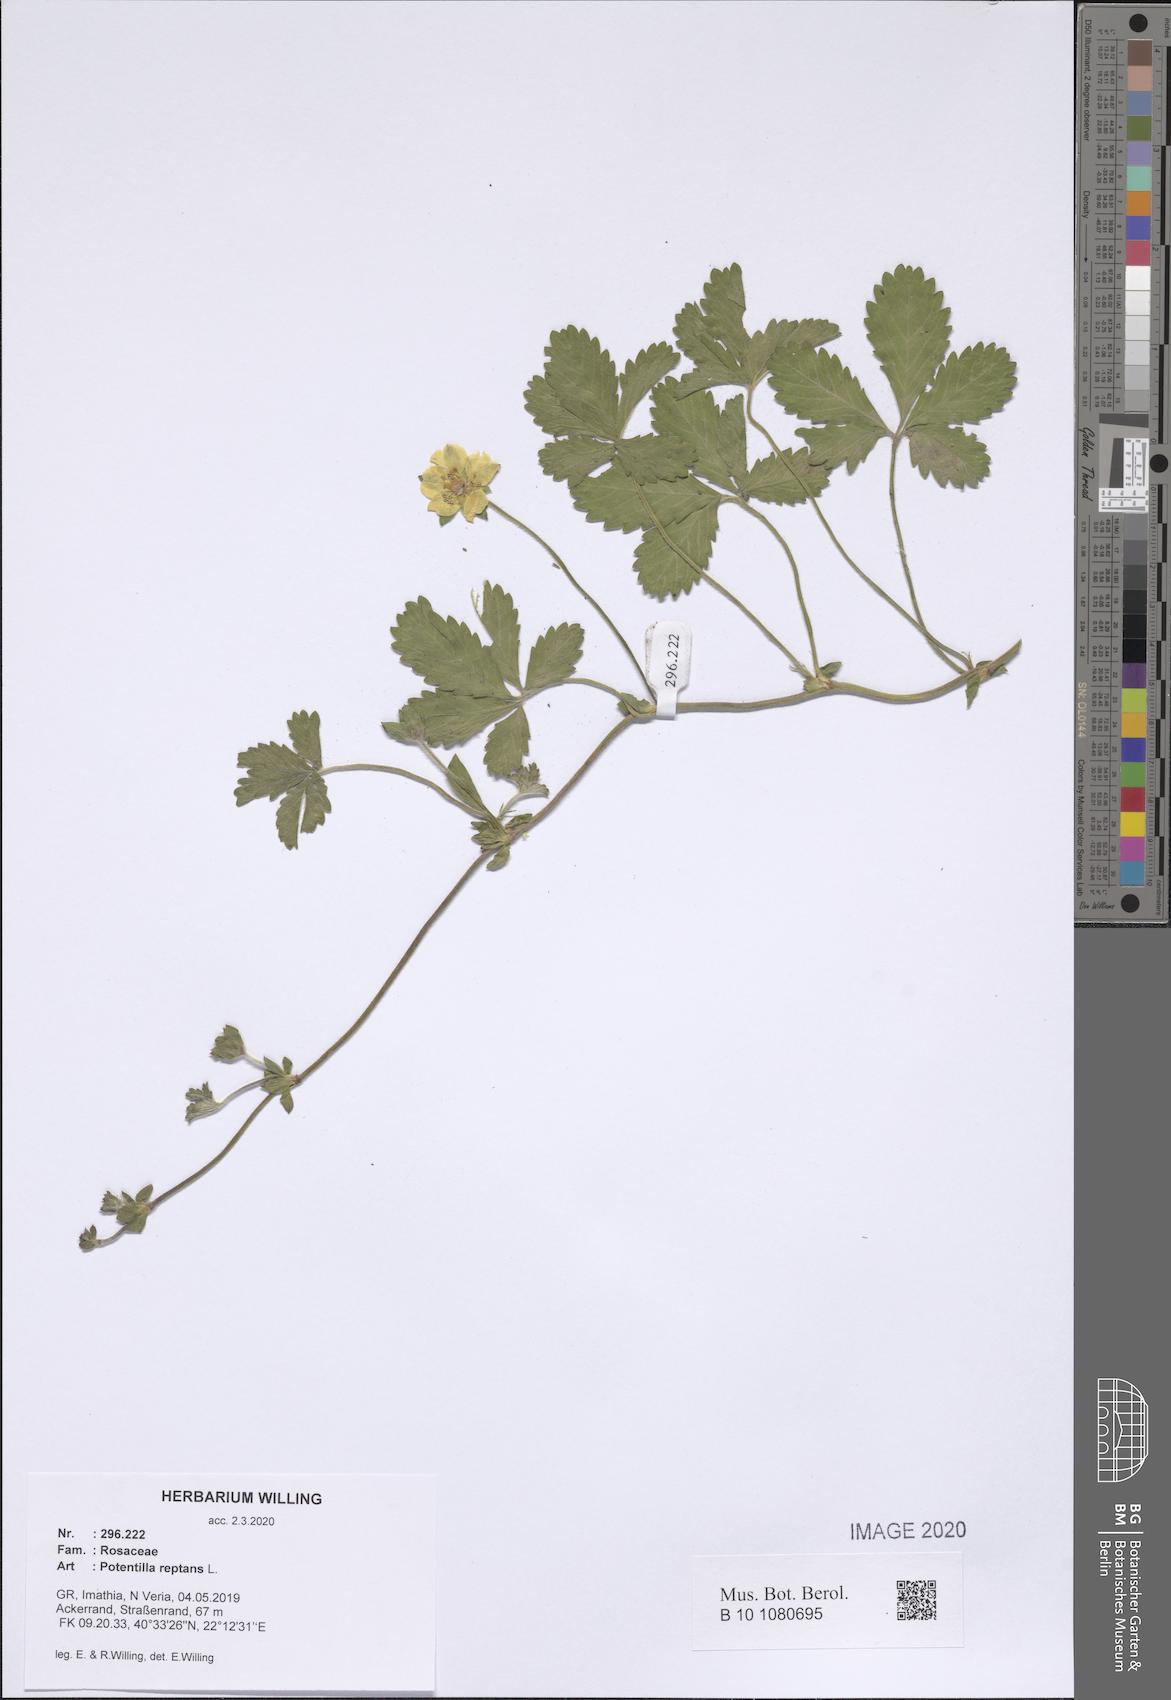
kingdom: Plantae
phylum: Tracheophyta
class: Magnoliopsida
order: Rosales
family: Rosaceae
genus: Potentilla
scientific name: Potentilla reptans
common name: Creeping cinquefoil
